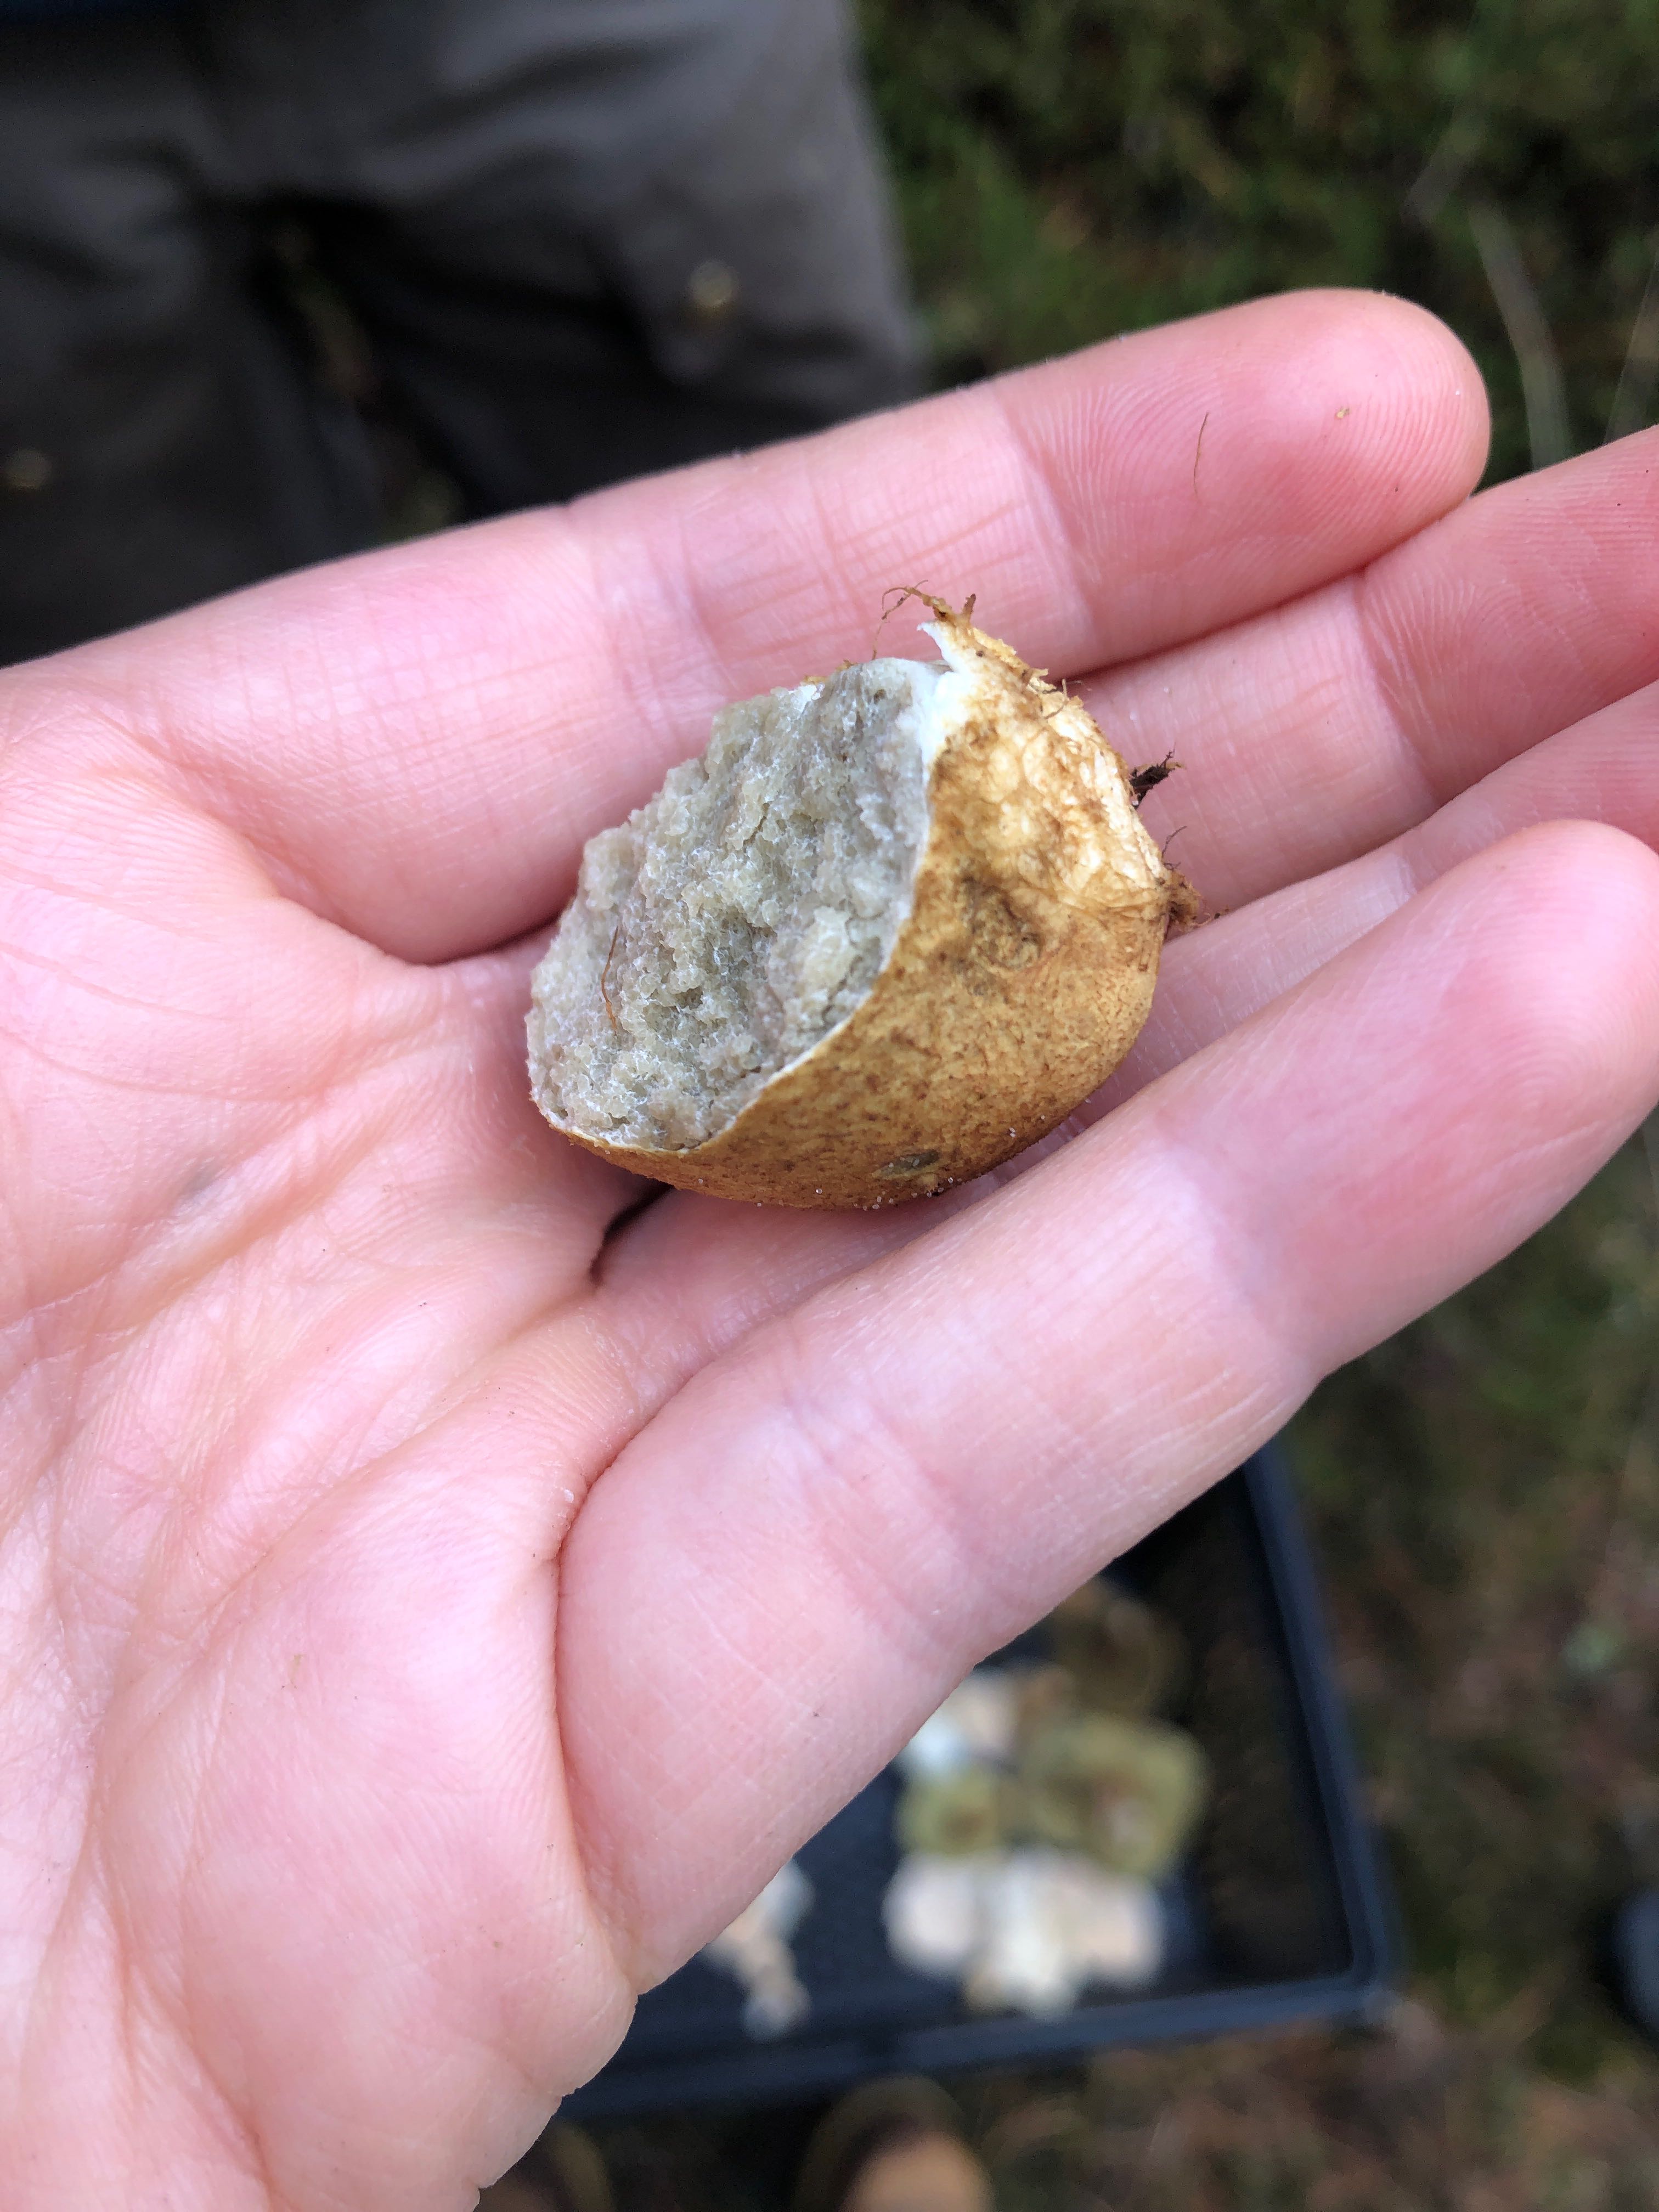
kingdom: Fungi
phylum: Basidiomycota
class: Agaricomycetes
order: Boletales
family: Rhizopogonaceae
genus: Rhizopogon
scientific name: Rhizopogon obtextus
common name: gul skægtrøffel
